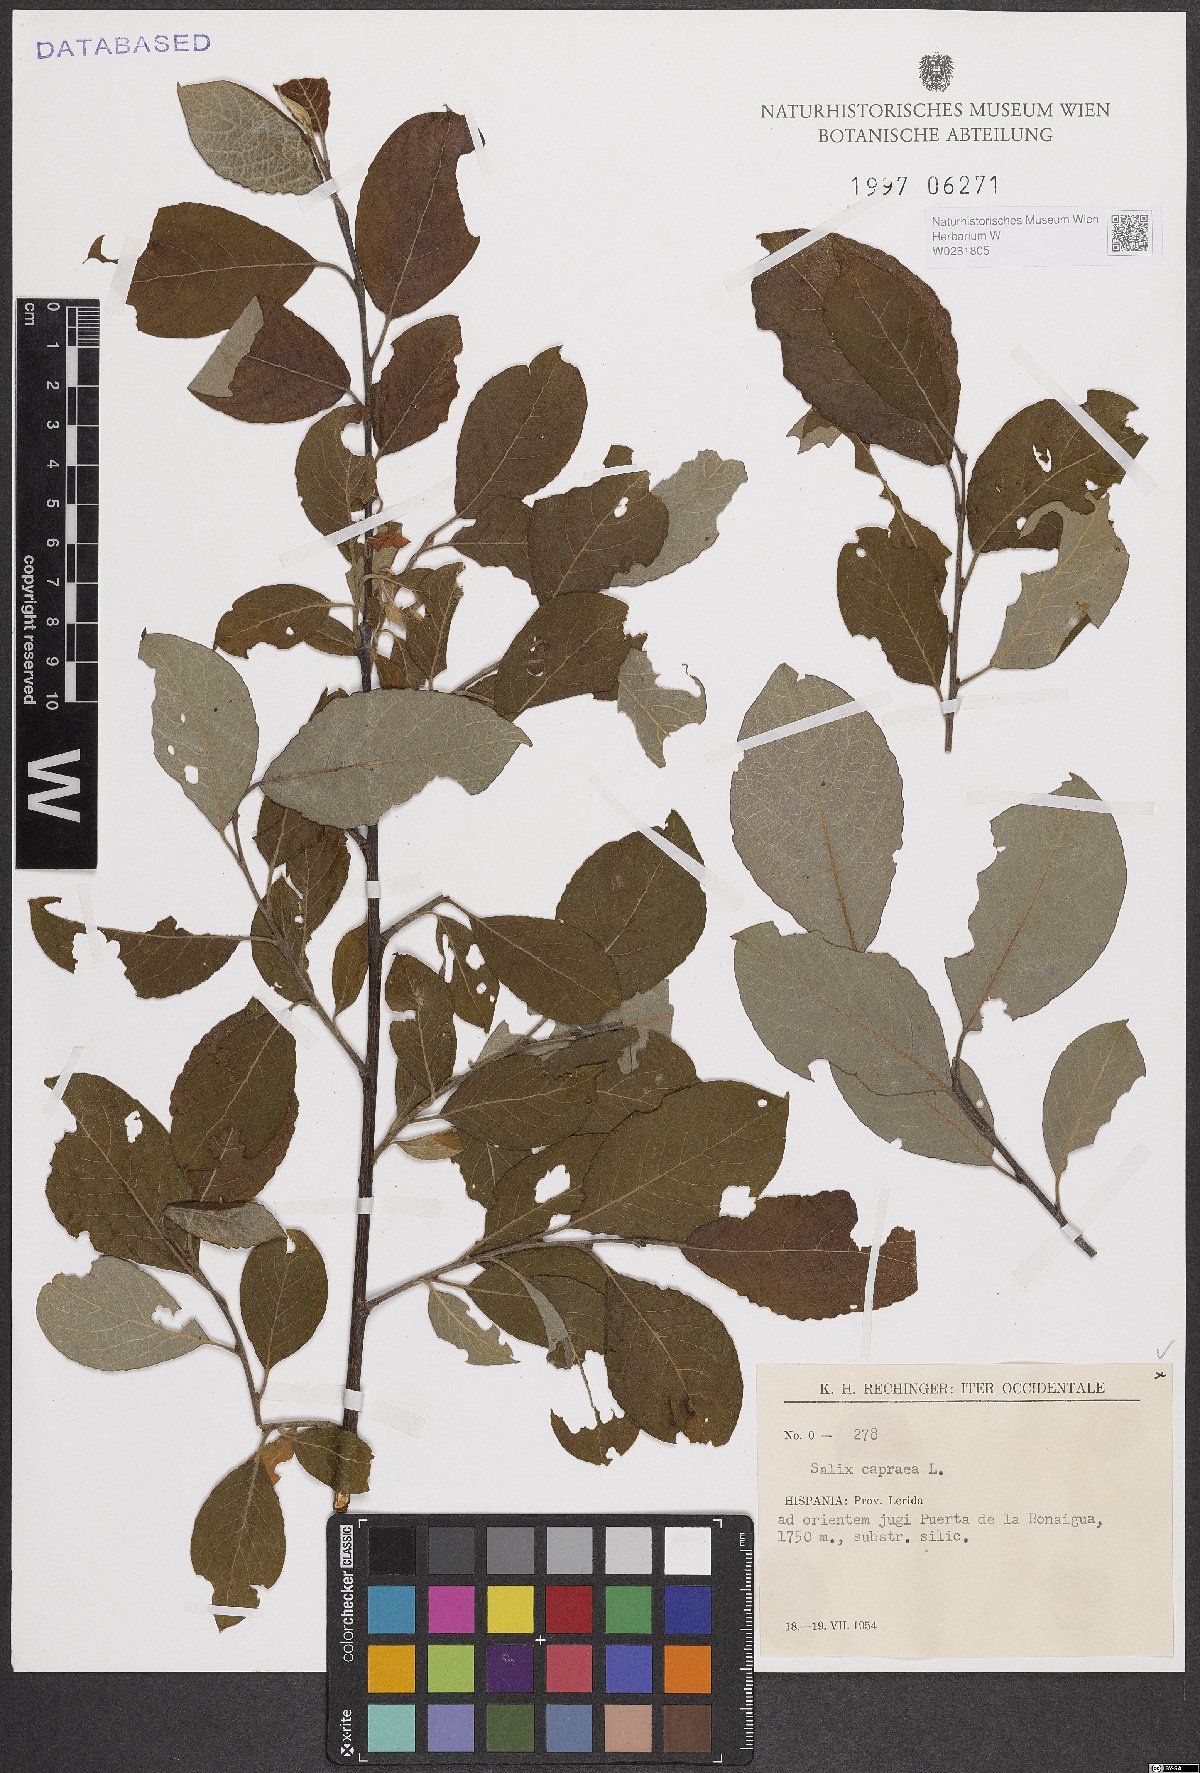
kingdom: Plantae
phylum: Tracheophyta
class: Magnoliopsida
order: Malpighiales
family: Salicaceae
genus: Salix
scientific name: Salix caprea
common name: Goat willow
